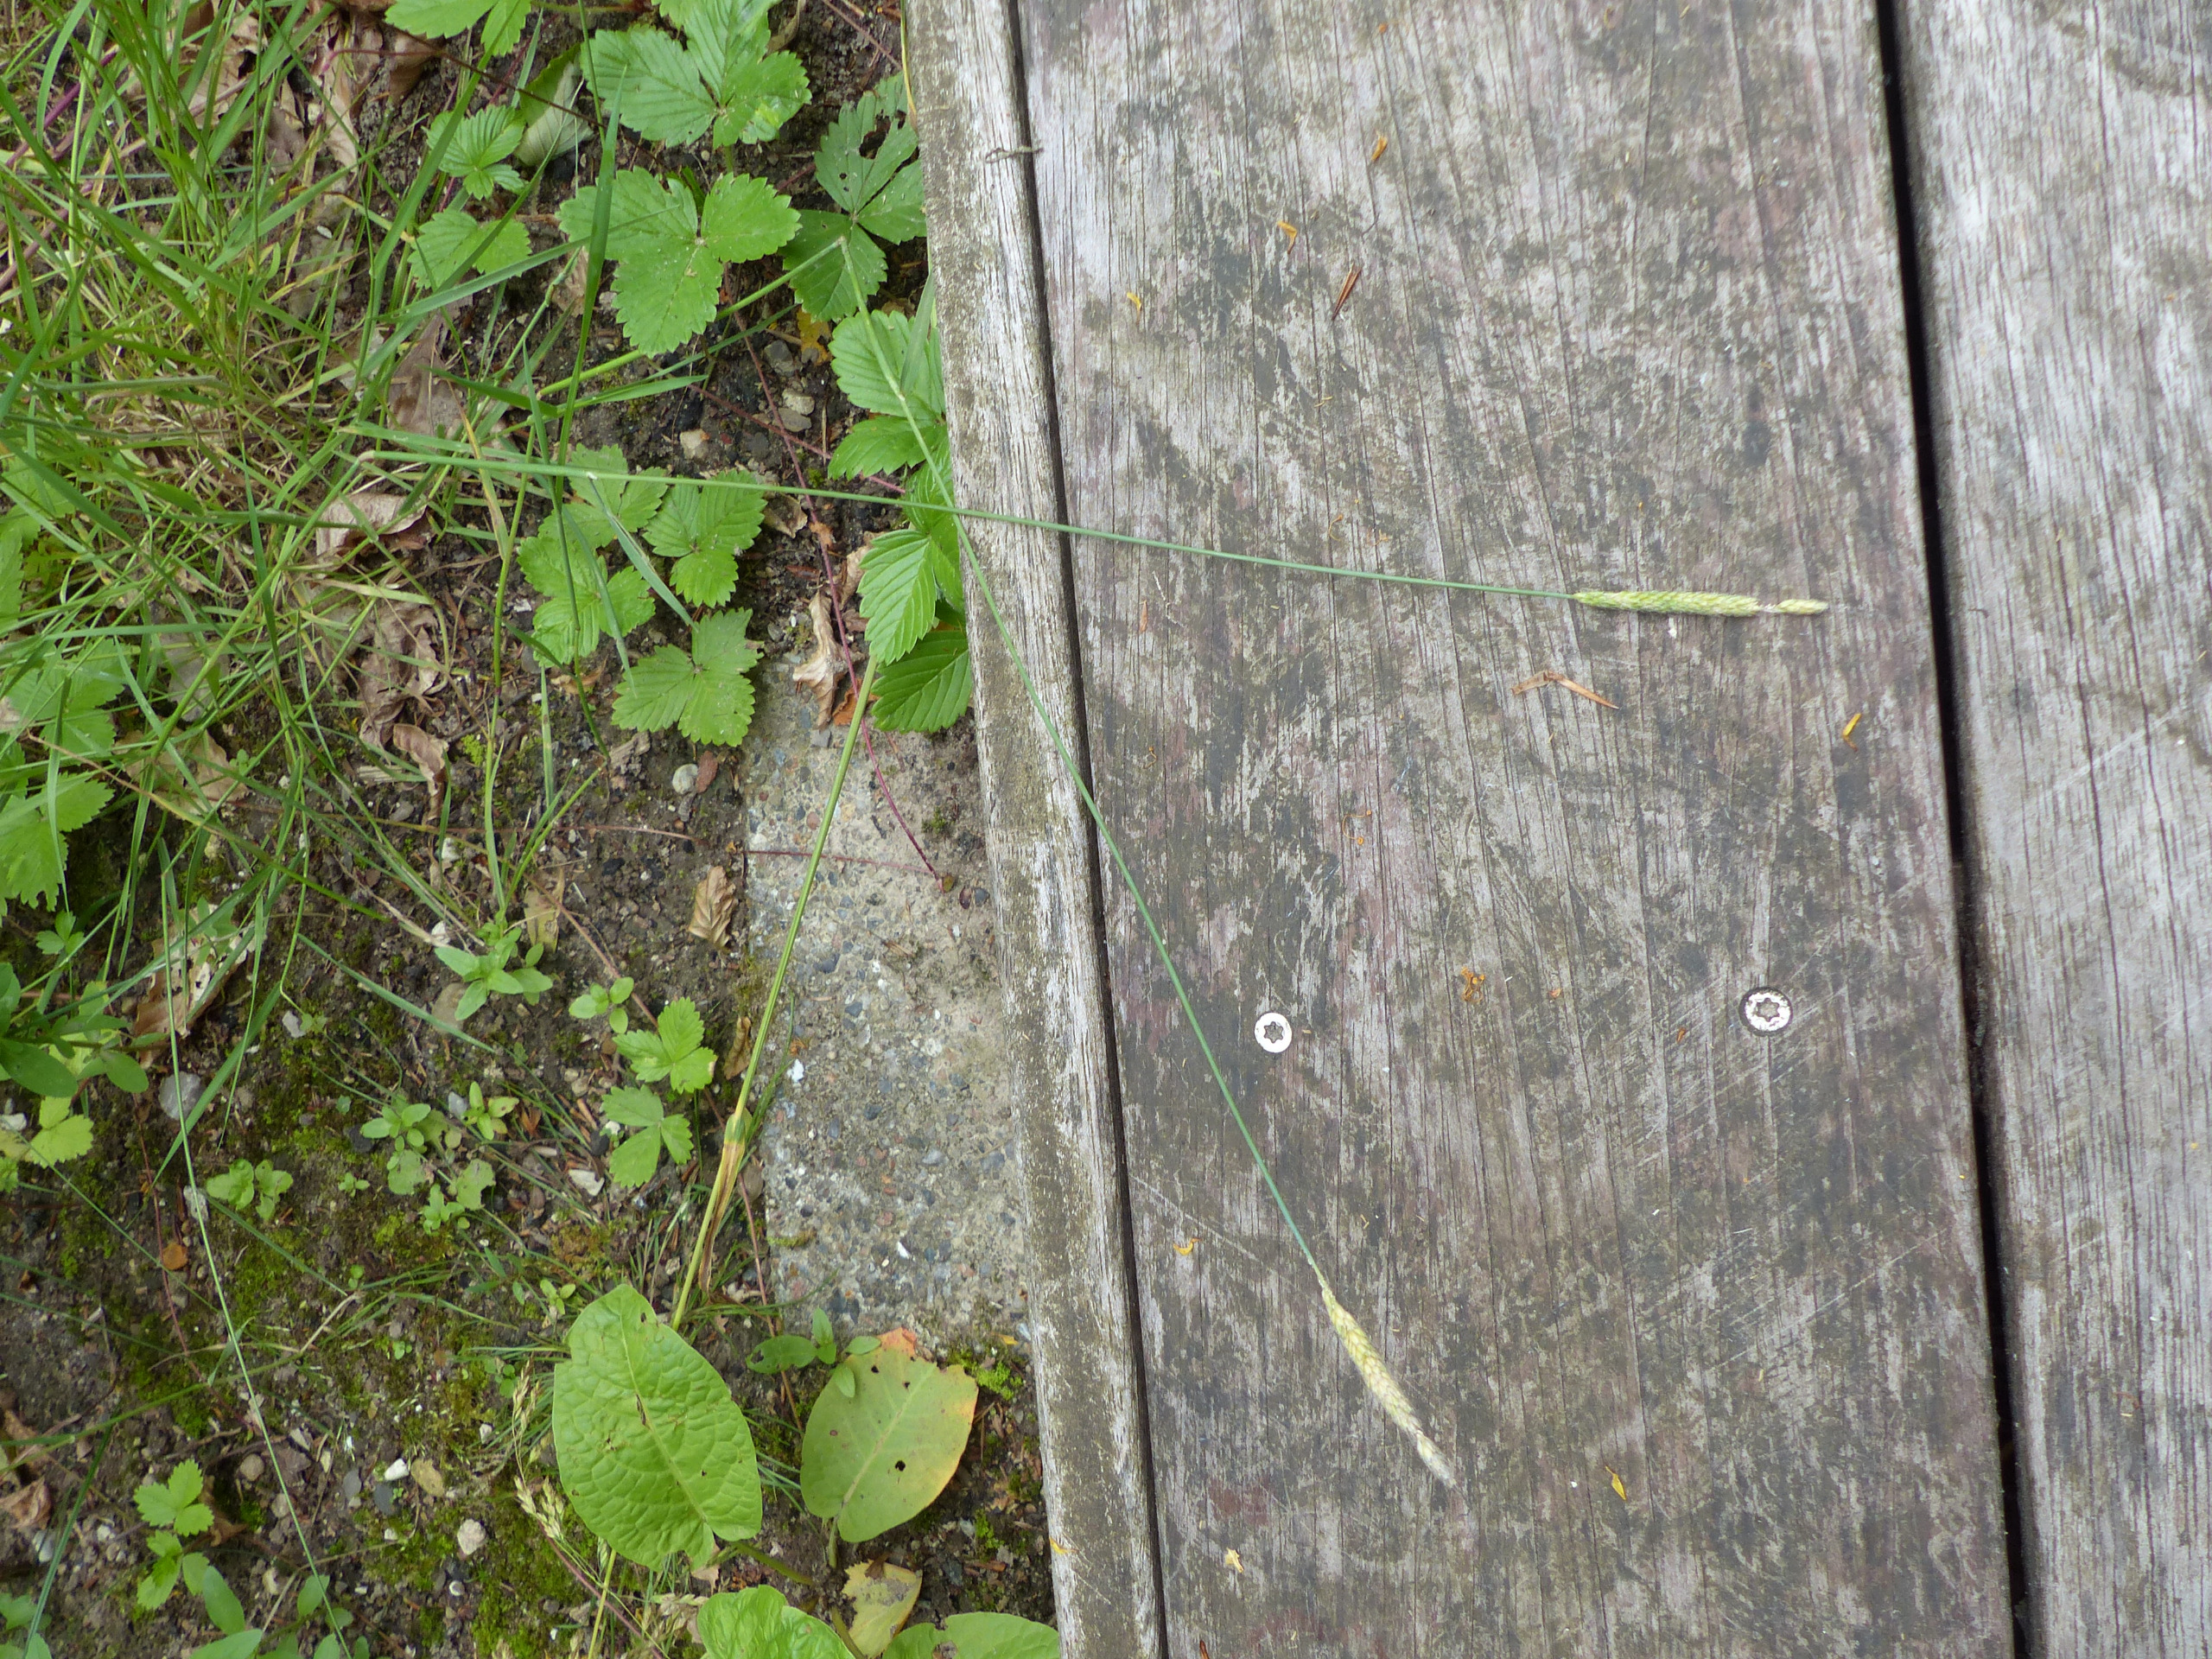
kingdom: Plantae
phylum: Tracheophyta
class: Liliopsida
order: Poales
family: Poaceae
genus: Alopecurus
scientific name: Alopecurus myosuroides
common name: Ager-rævehale
